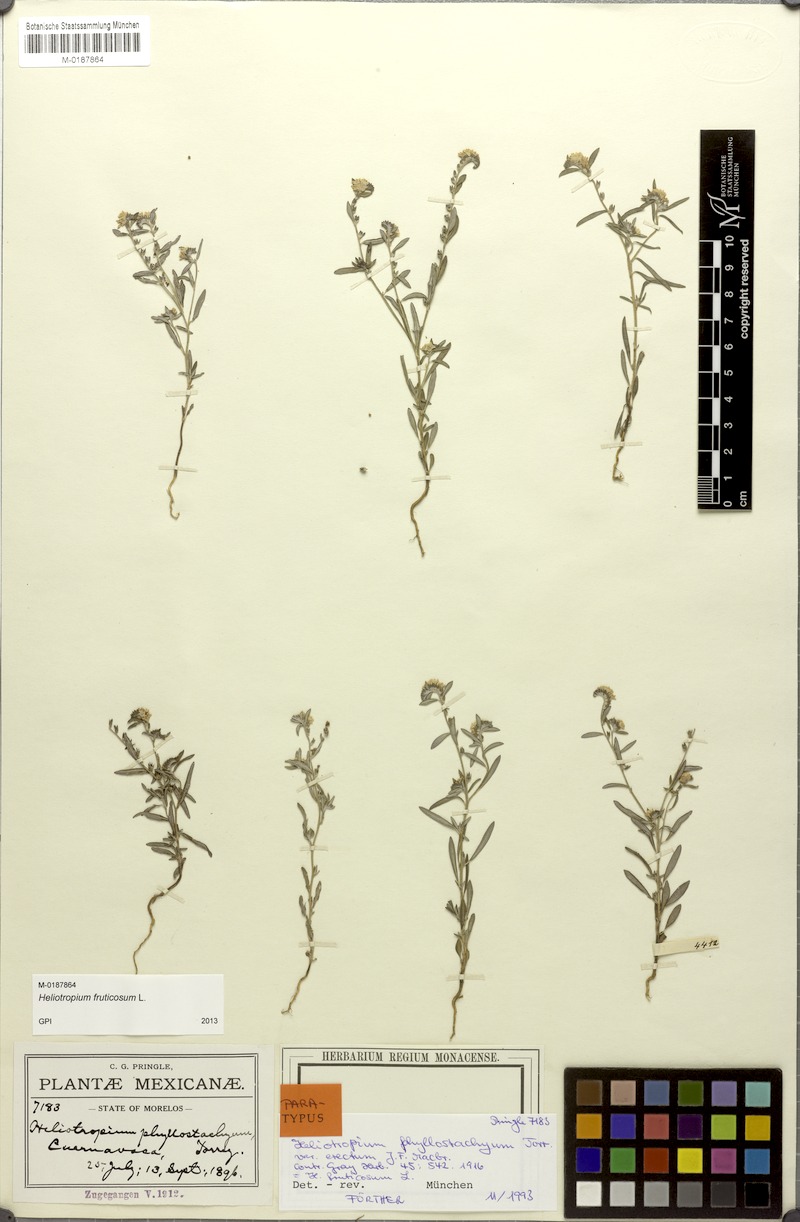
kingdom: Plantae
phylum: Tracheophyta
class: Magnoliopsida
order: Boraginales
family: Heliotropiaceae
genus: Euploca
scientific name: Euploca fruticosa
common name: Key west heliotrope
